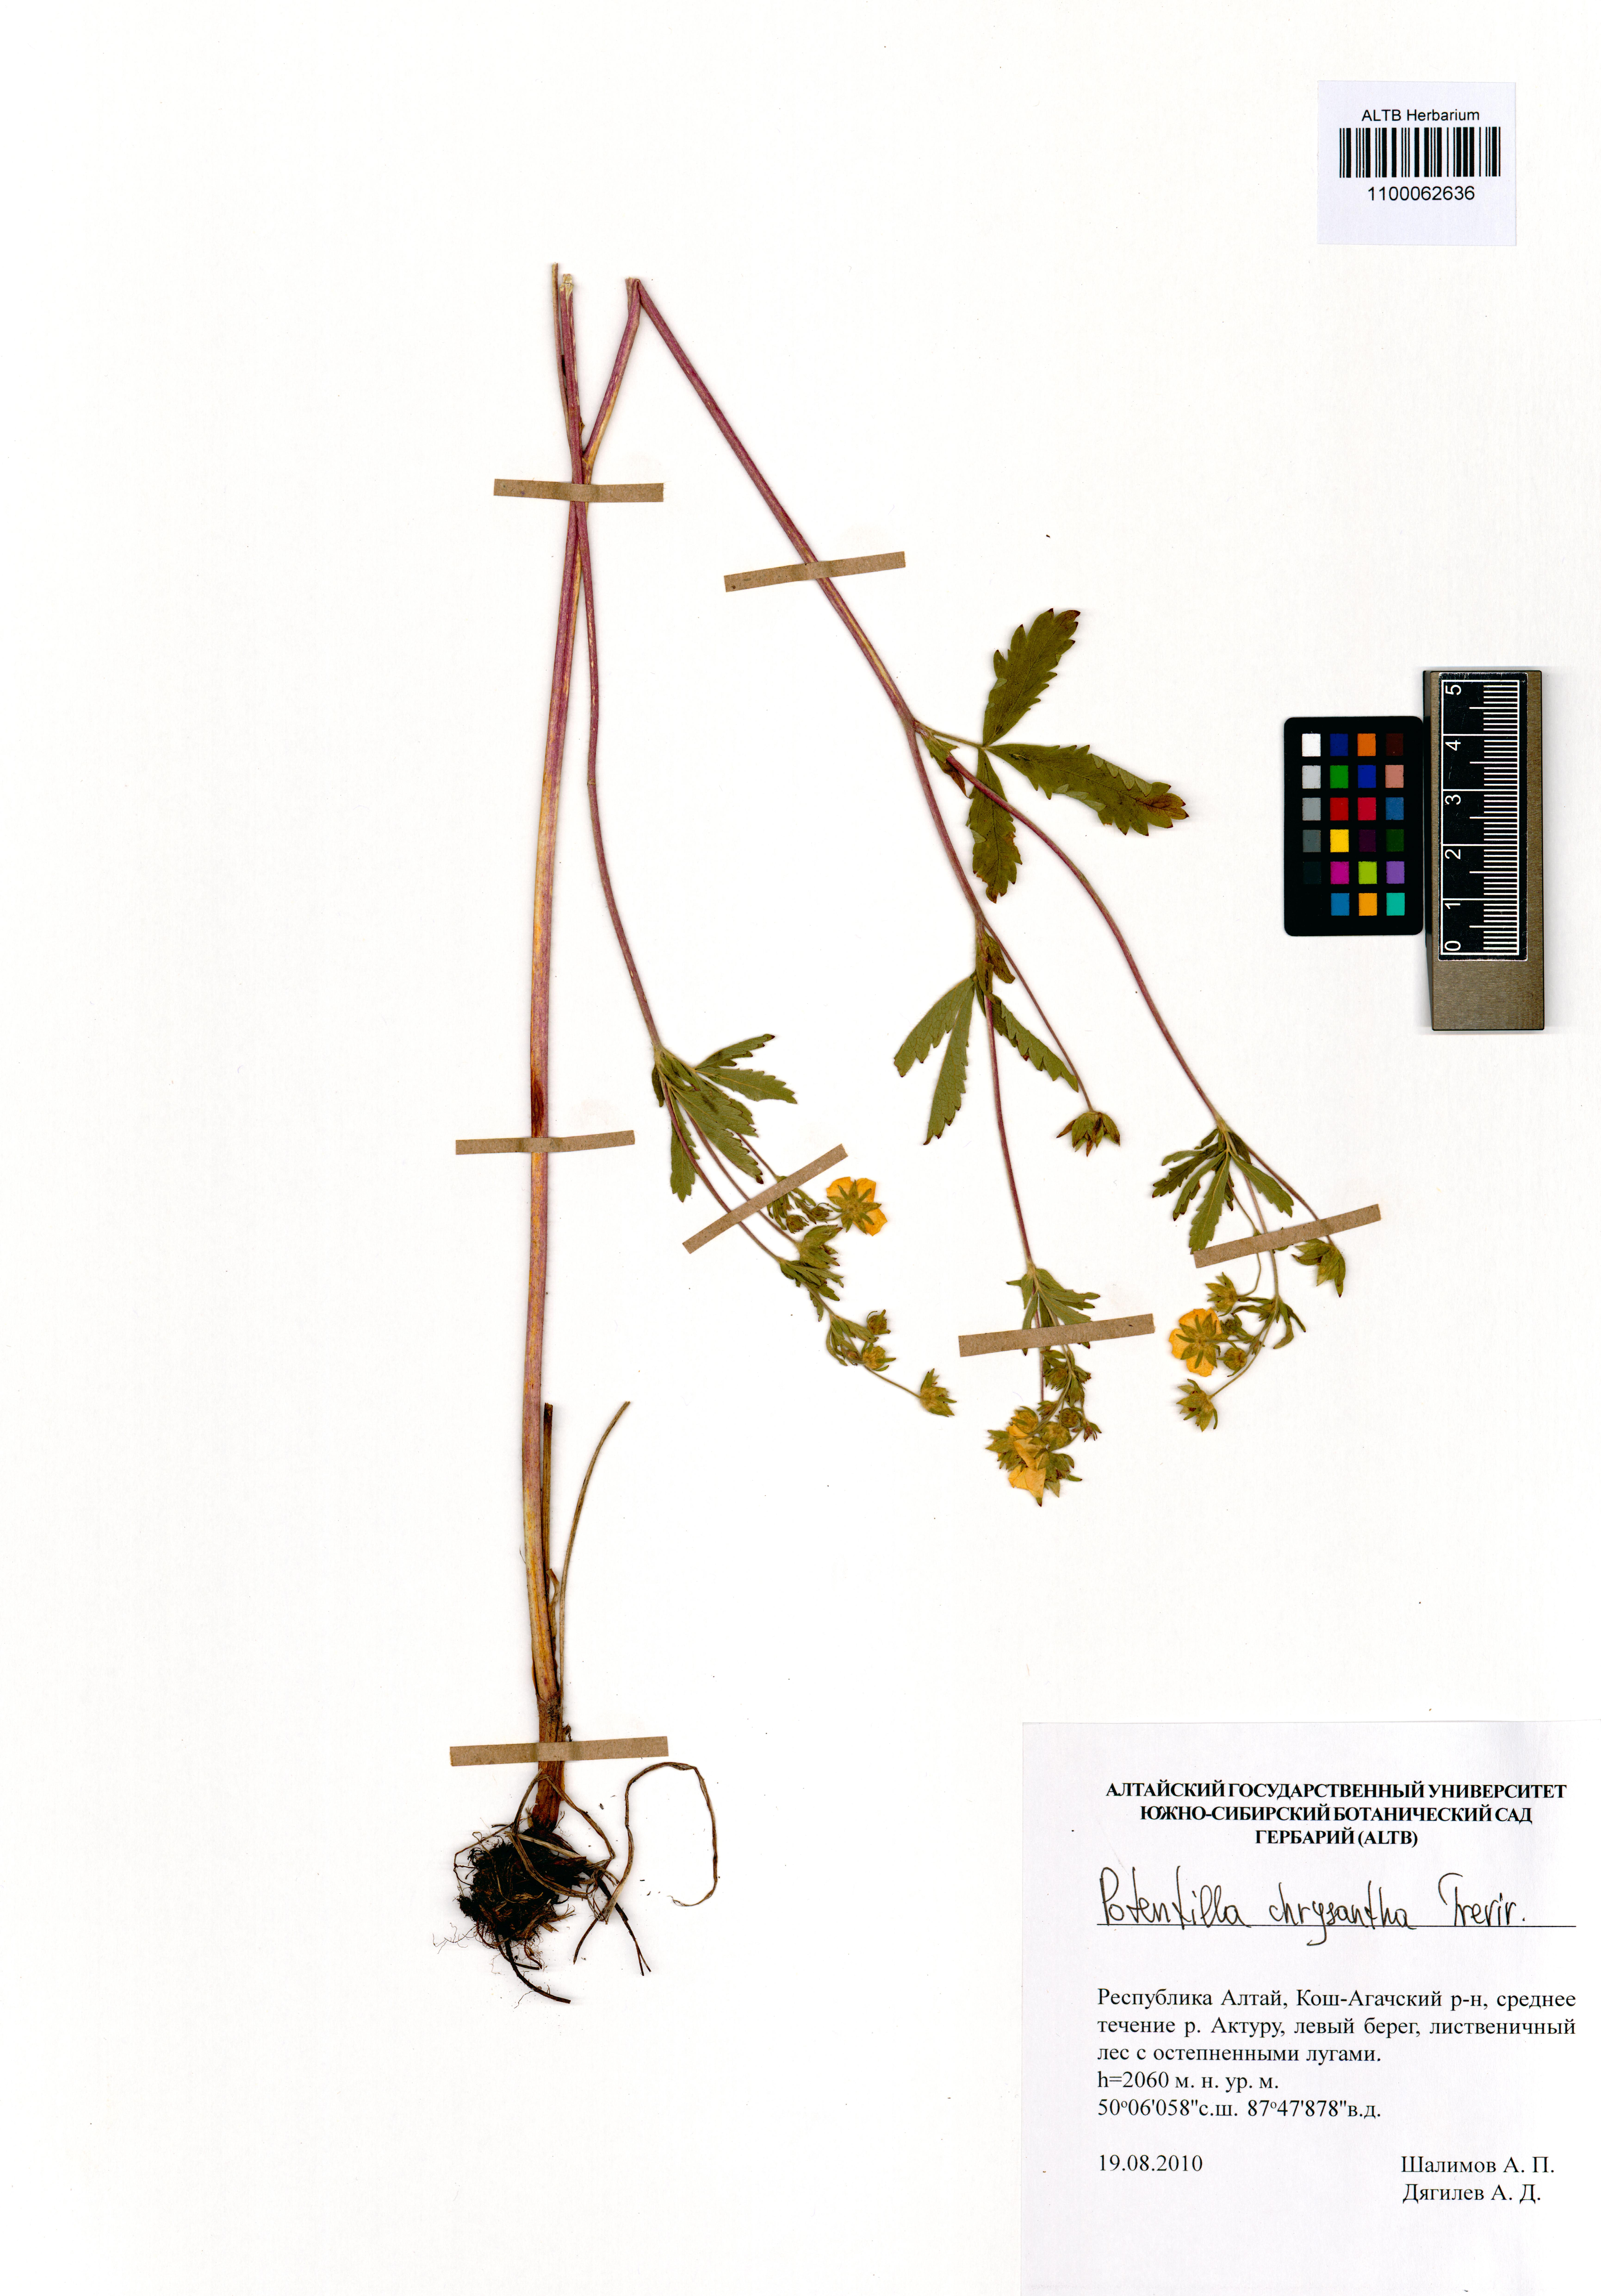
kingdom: Plantae
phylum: Tracheophyta
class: Magnoliopsida
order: Rosales
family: Rosaceae
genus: Potentilla
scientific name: Potentilla chrysantha
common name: Thuringian cinquefoil
